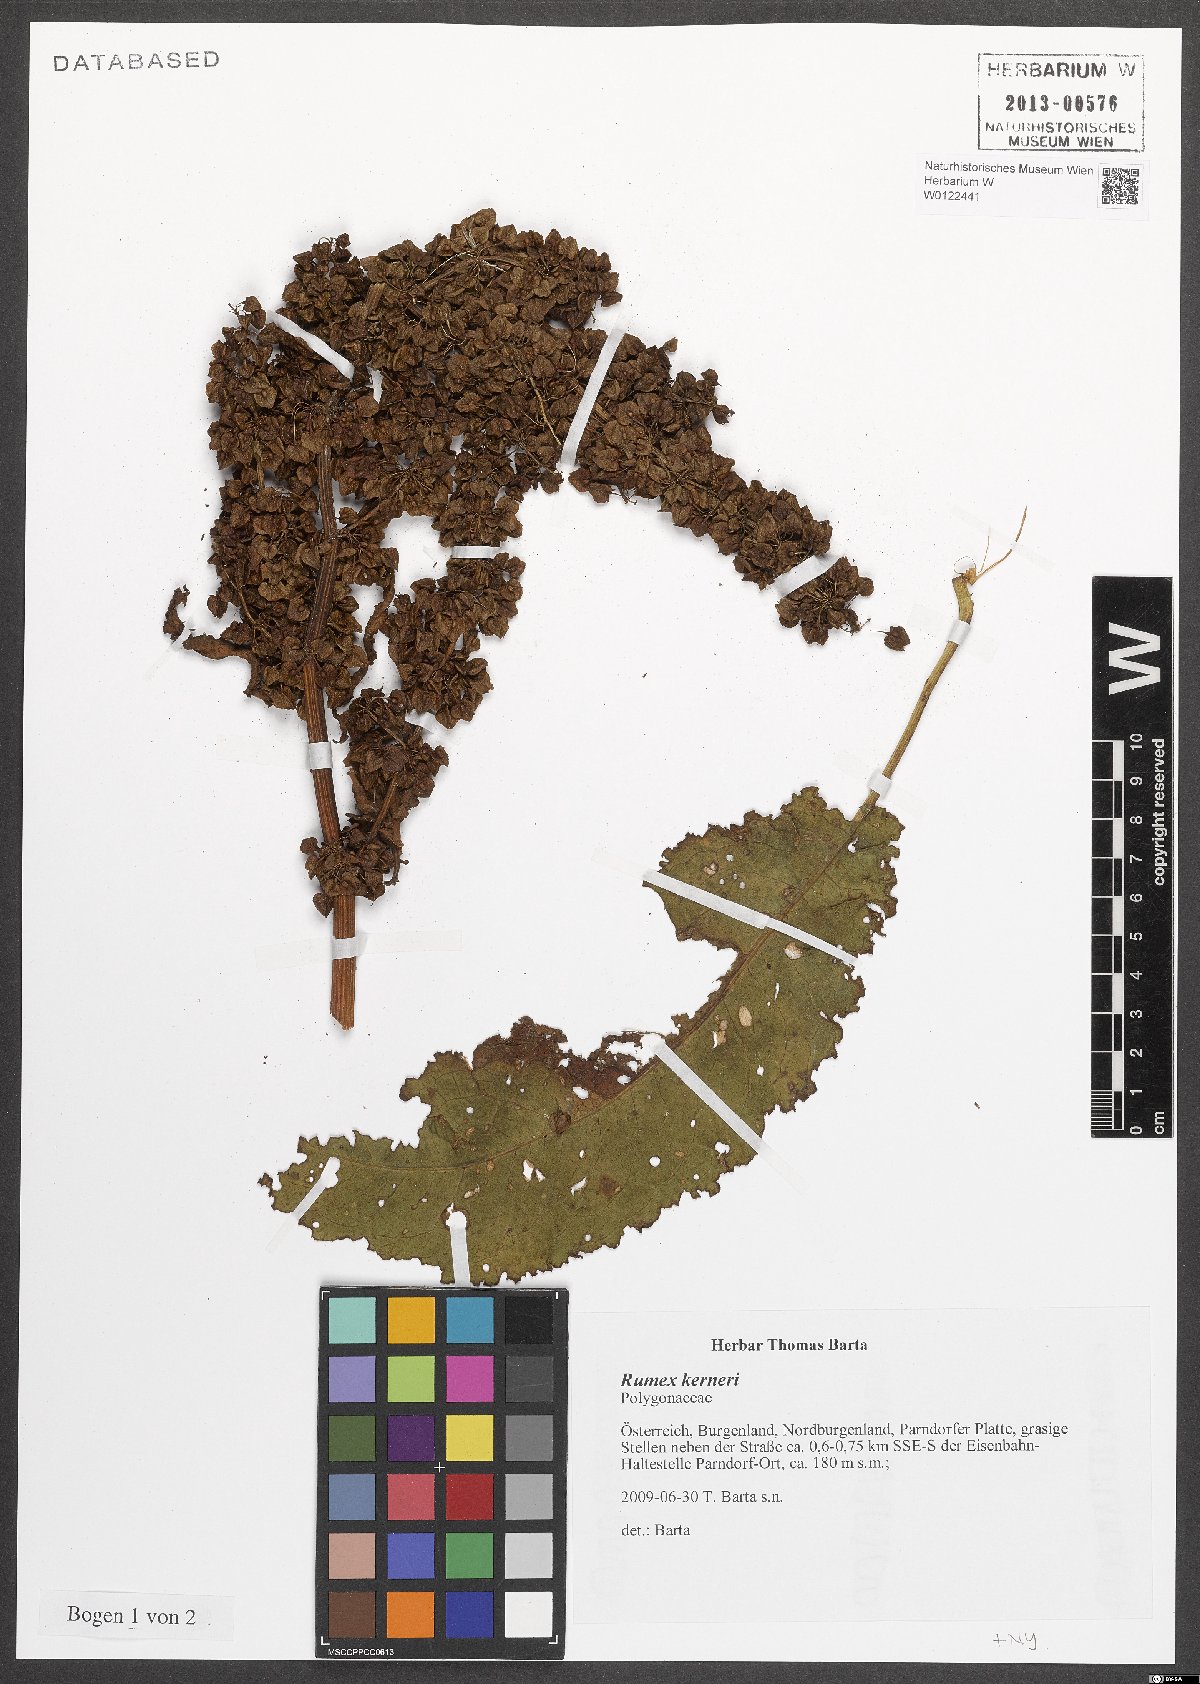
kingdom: Plantae
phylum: Tracheophyta
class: Magnoliopsida
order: Caryophyllales
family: Polygonaceae
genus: Rumex
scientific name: Rumex kerneri
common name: Kerner's dock
